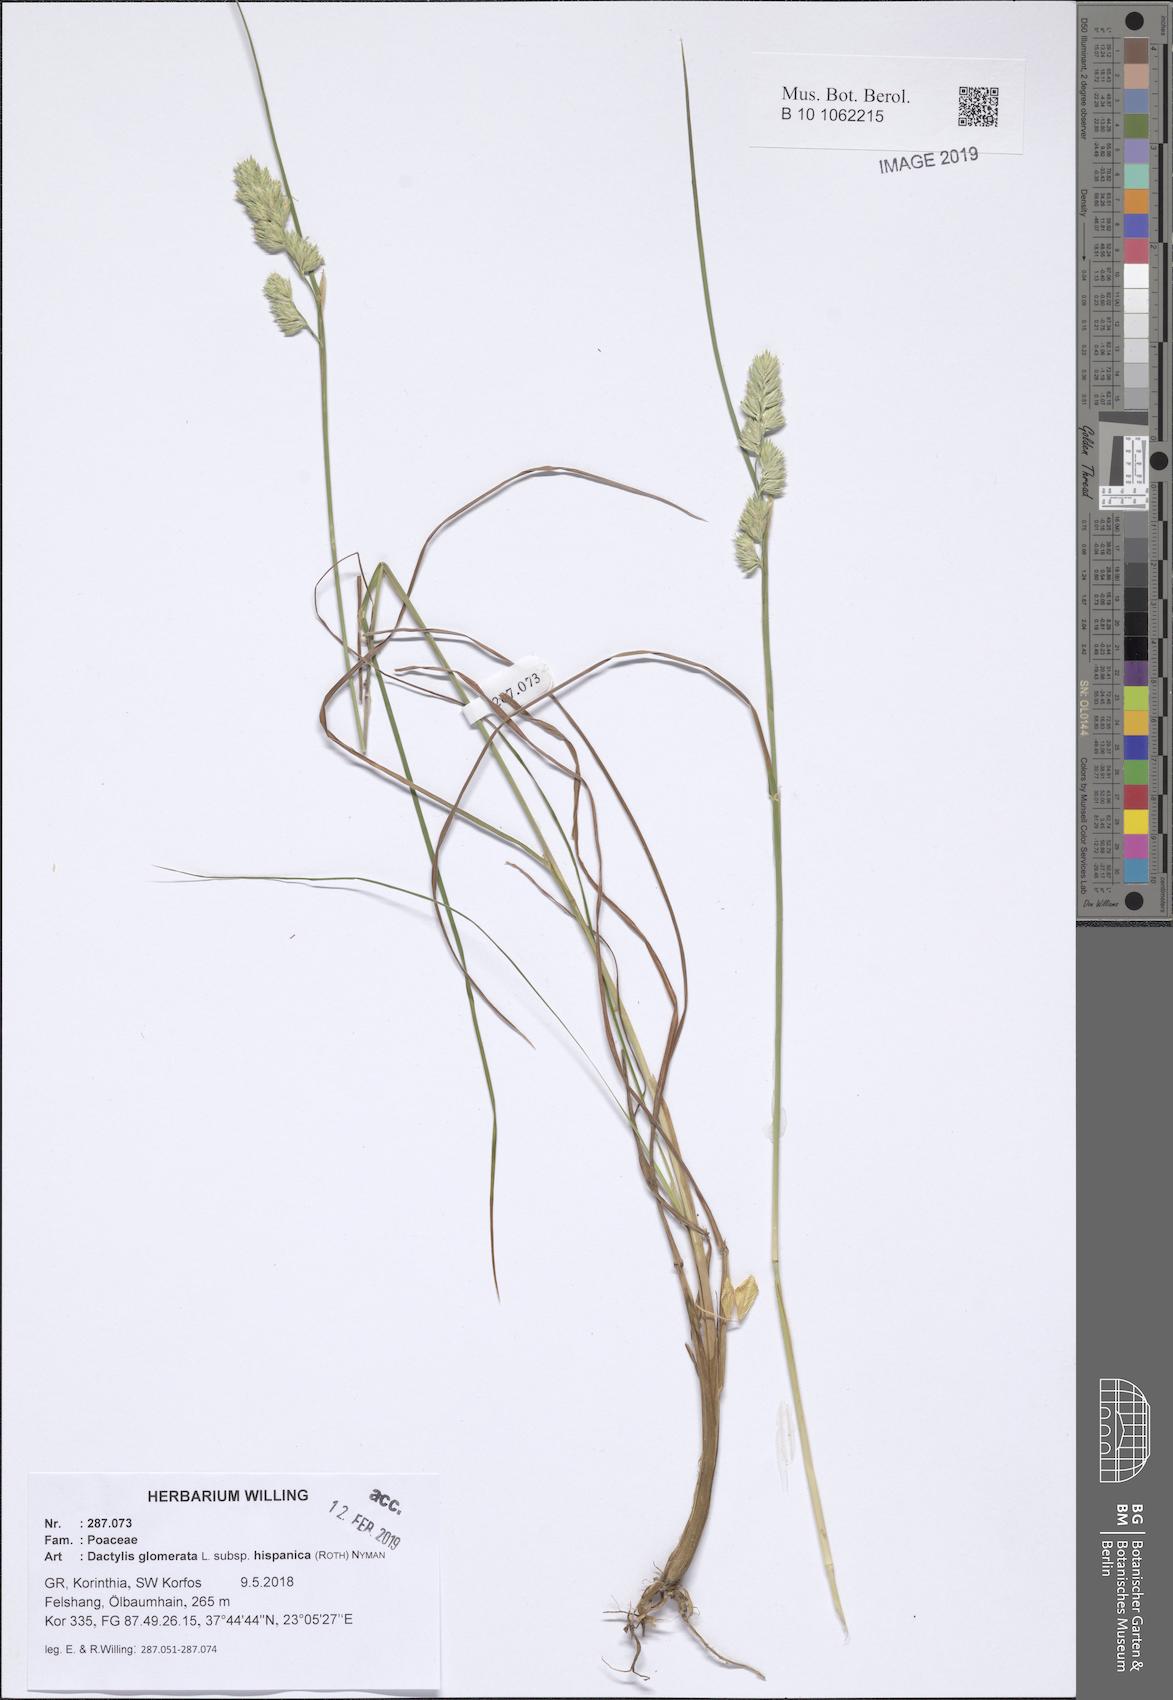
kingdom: Plantae
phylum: Tracheophyta
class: Liliopsida
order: Poales
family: Poaceae
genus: Dactylis
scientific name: Dactylis glomerata
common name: Orchardgrass
